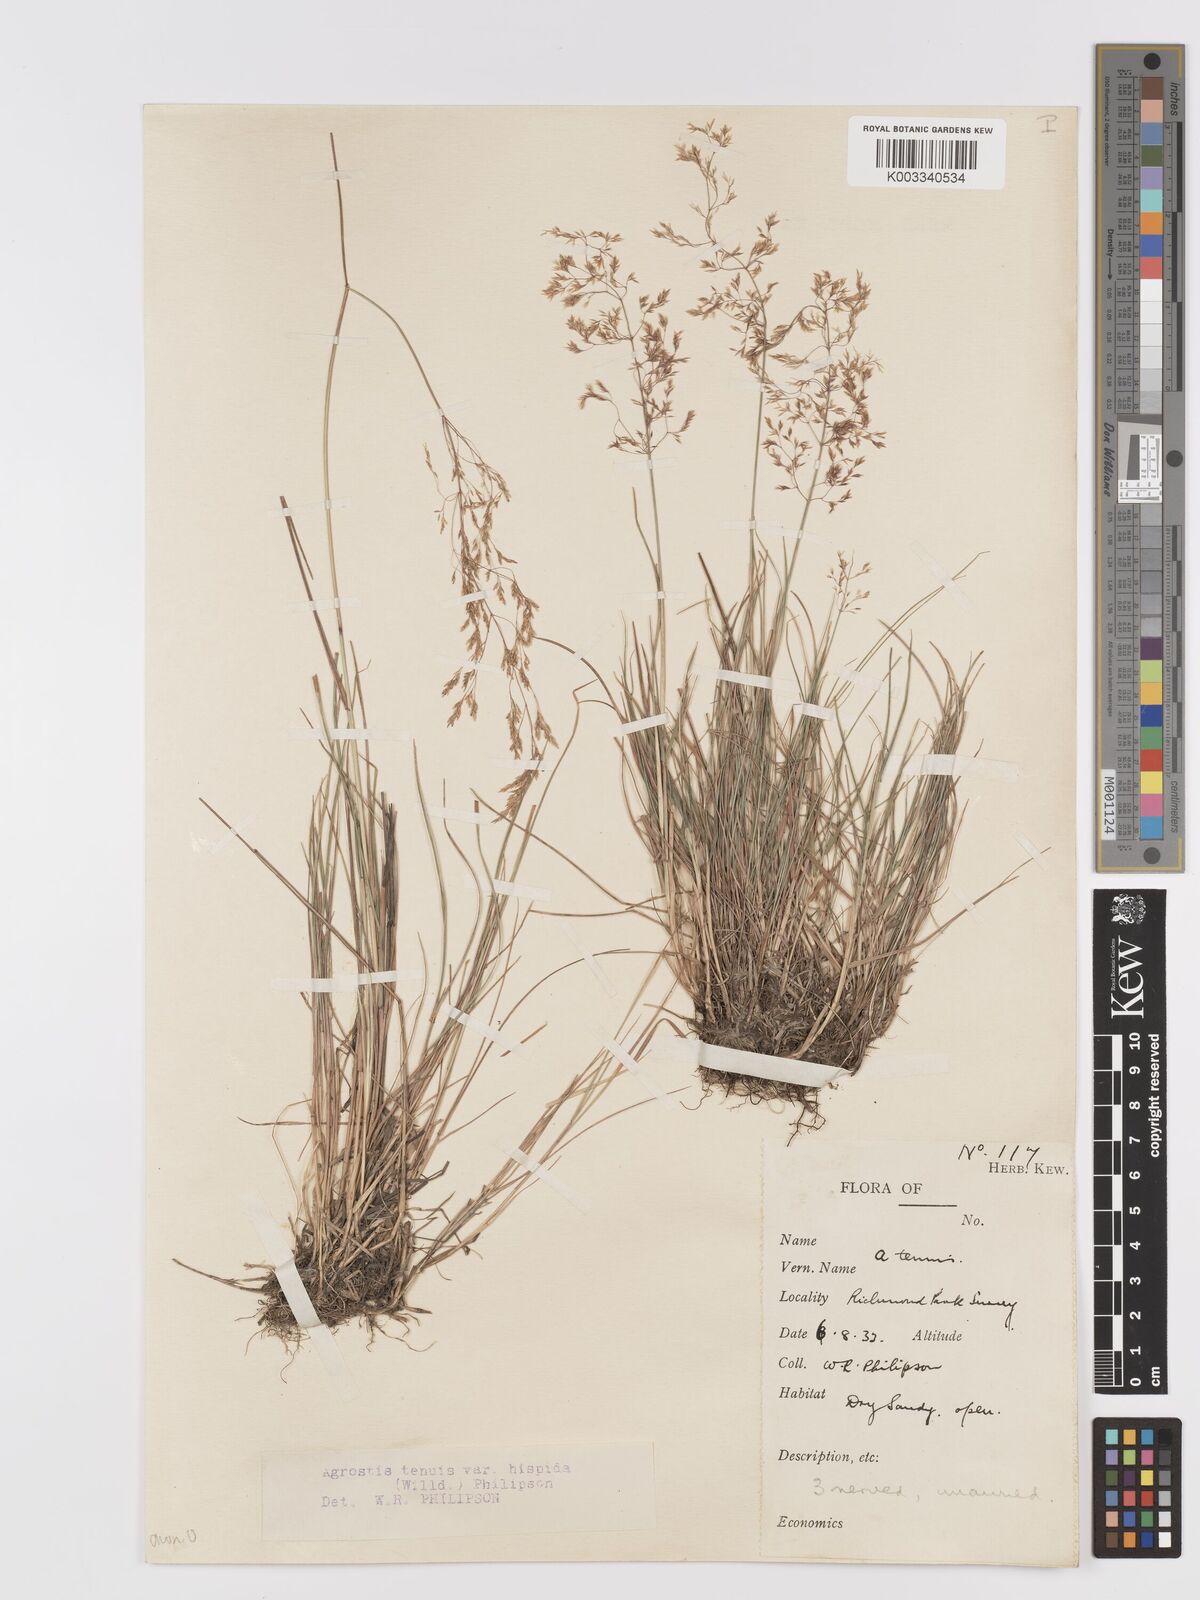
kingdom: Plantae
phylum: Tracheophyta
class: Liliopsida
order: Poales
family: Poaceae
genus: Agrostis
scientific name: Agrostis capillaris
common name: Colonial bentgrass
